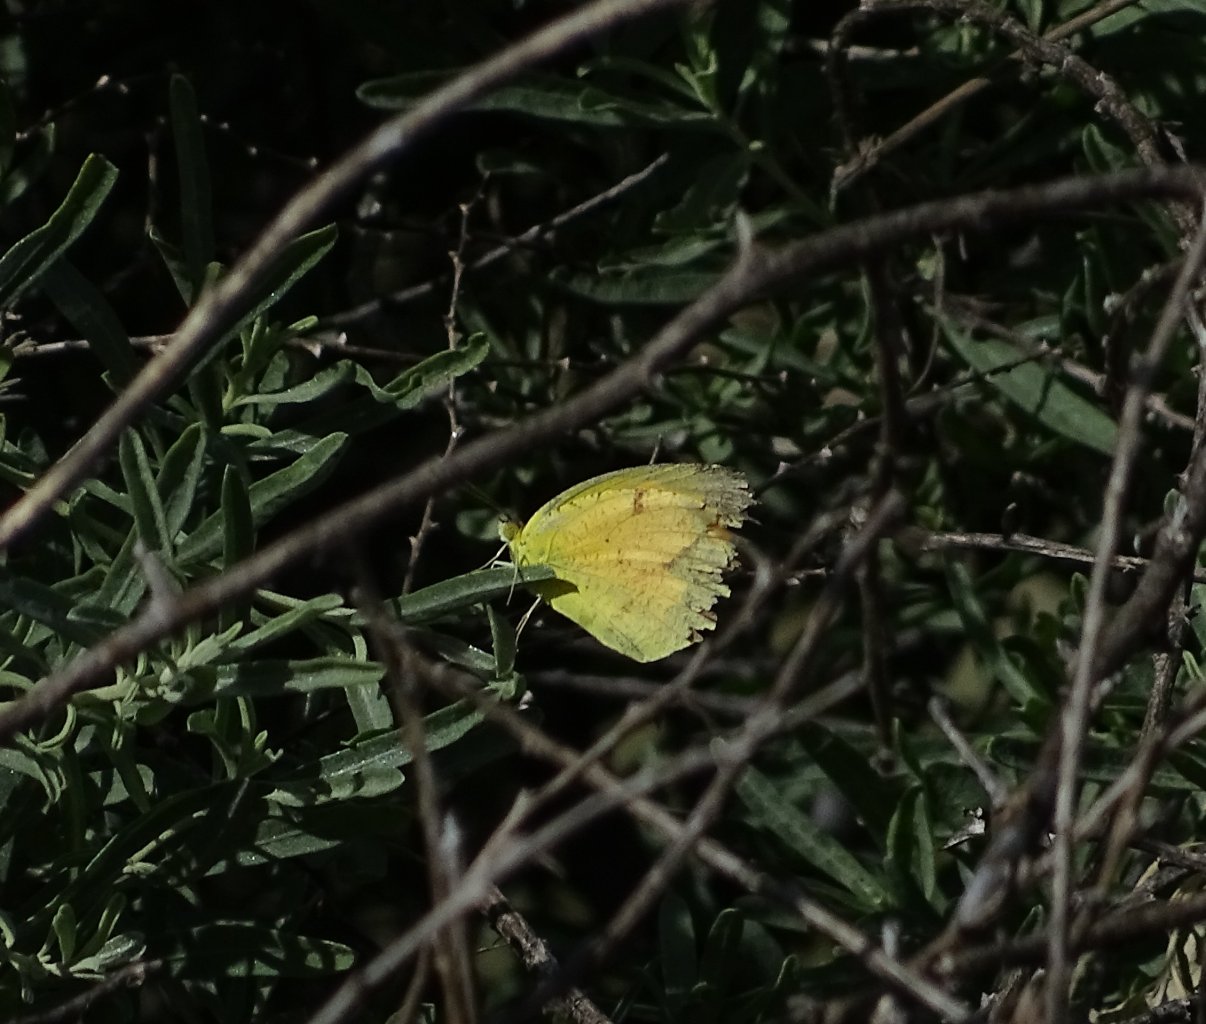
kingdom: Animalia
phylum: Arthropoda
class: Insecta
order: Lepidoptera
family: Pieridae
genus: Abaeis
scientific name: Abaeis nicippe
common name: Sleepy Orange
